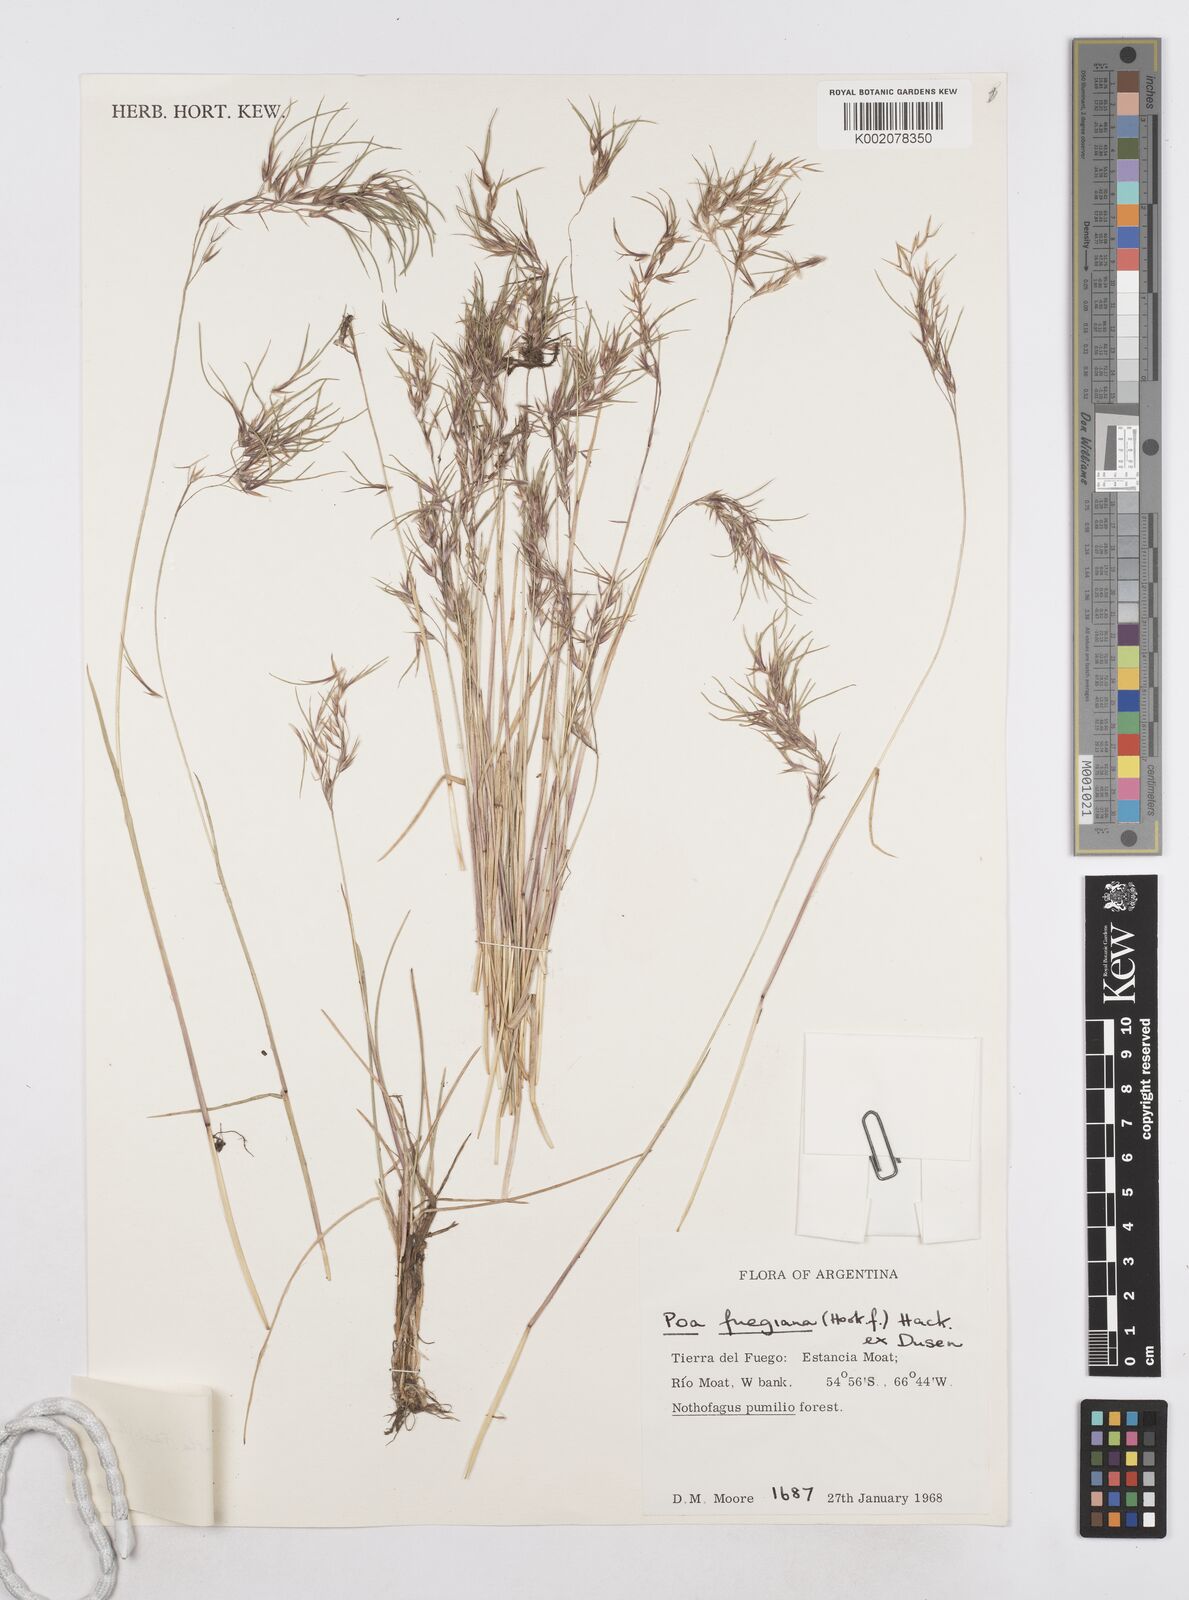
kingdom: Plantae
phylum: Tracheophyta
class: Liliopsida
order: Poales
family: Poaceae
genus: Poa
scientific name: Poa alopecurus
